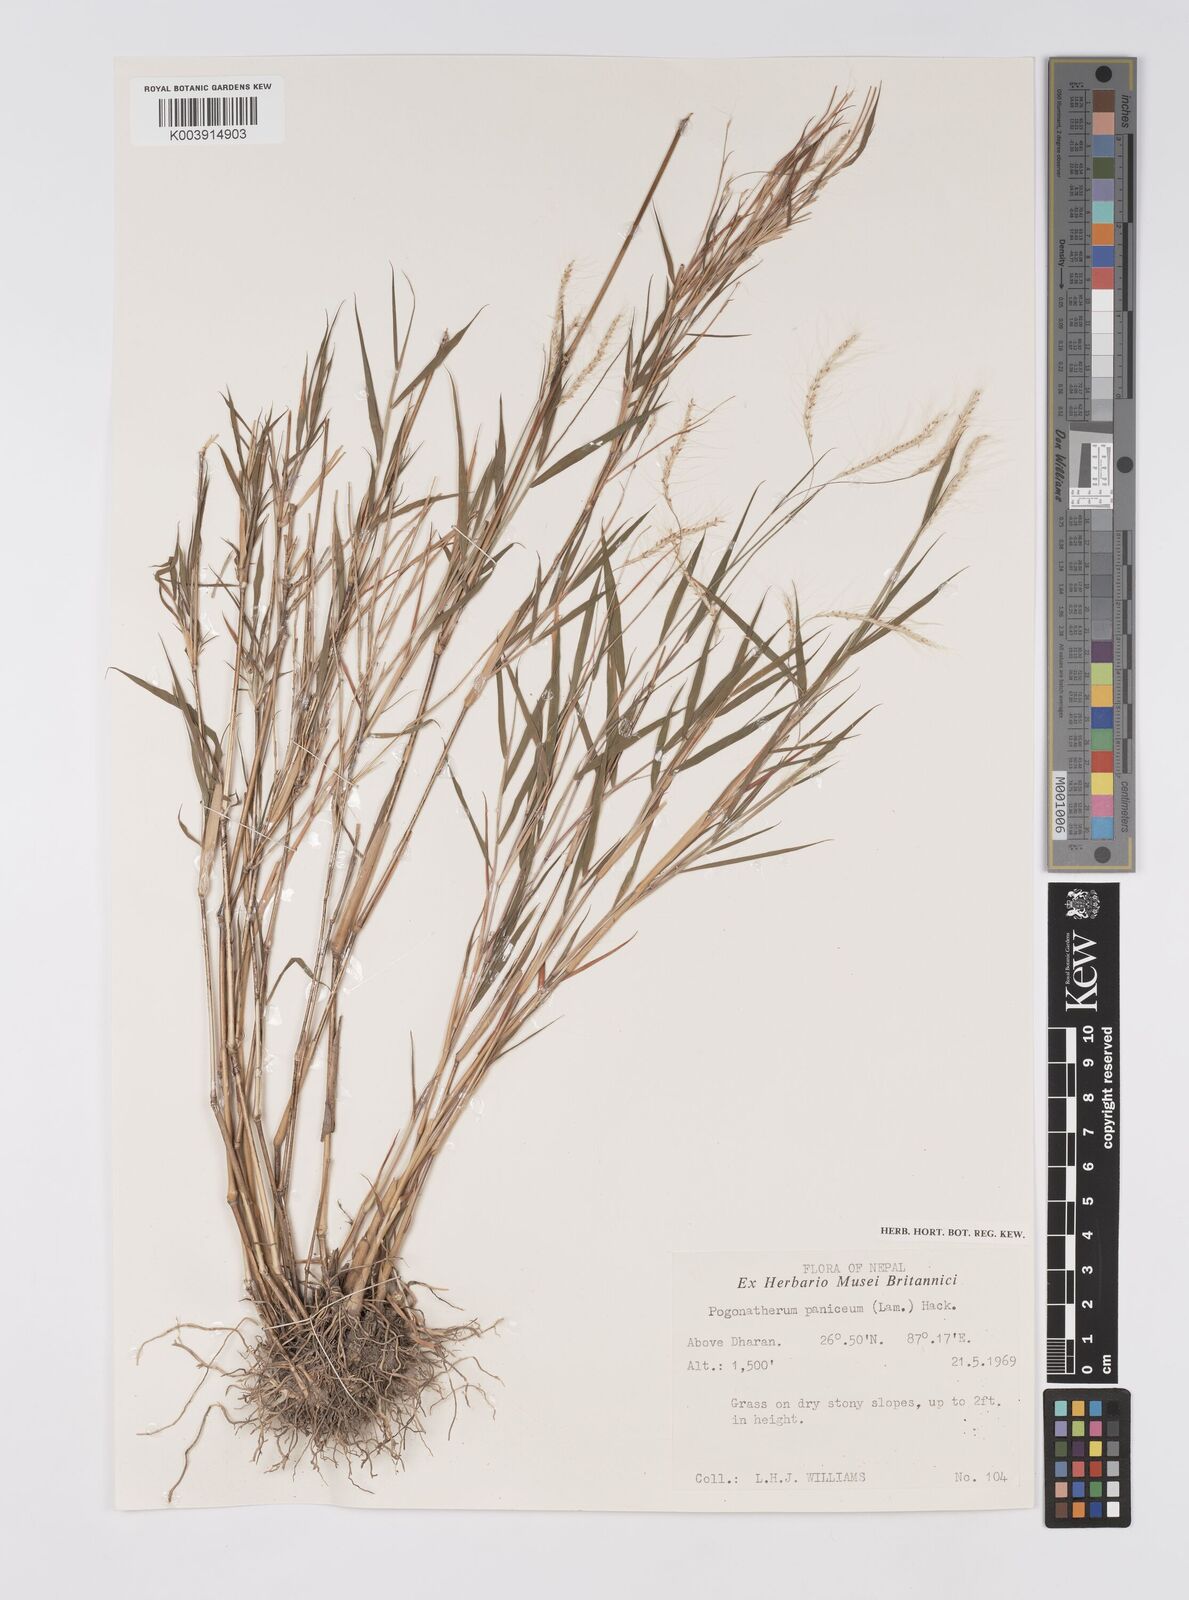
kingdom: Plantae
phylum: Tracheophyta
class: Liliopsida
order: Poales
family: Poaceae
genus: Pogonatherum
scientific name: Pogonatherum paniceum
